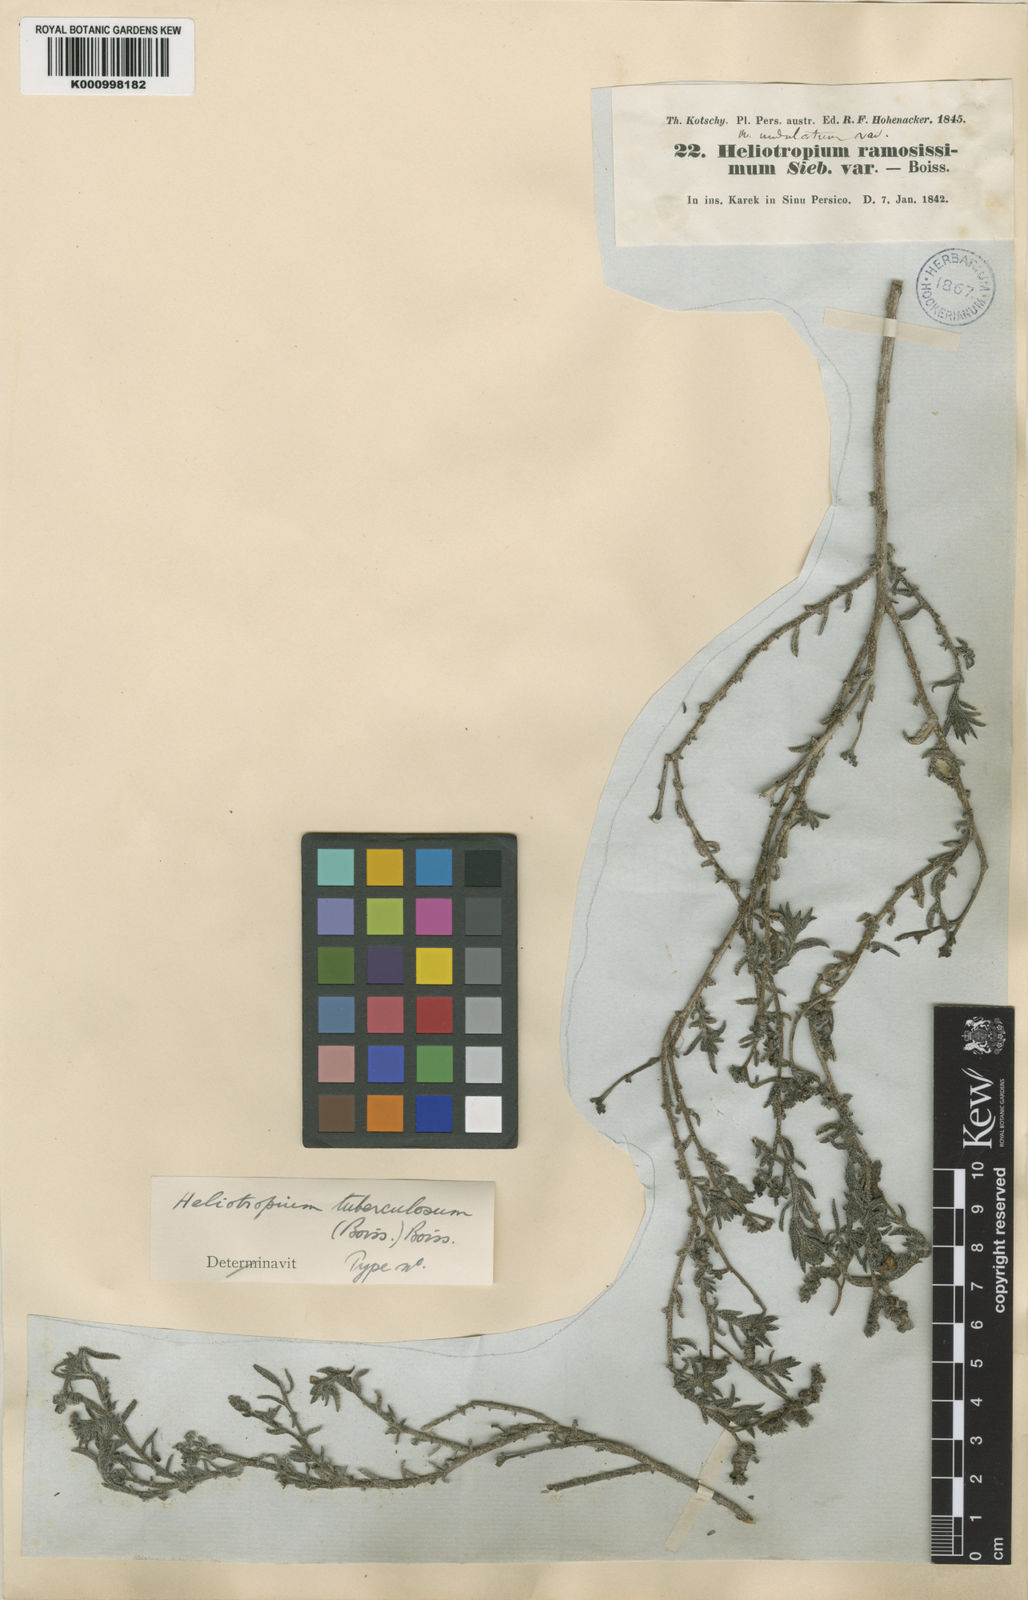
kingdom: Plantae
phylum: Tracheophyta
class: Magnoliopsida
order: Boraginales
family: Heliotropiaceae
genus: Heliotropium
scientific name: Heliotropium bacciferum
